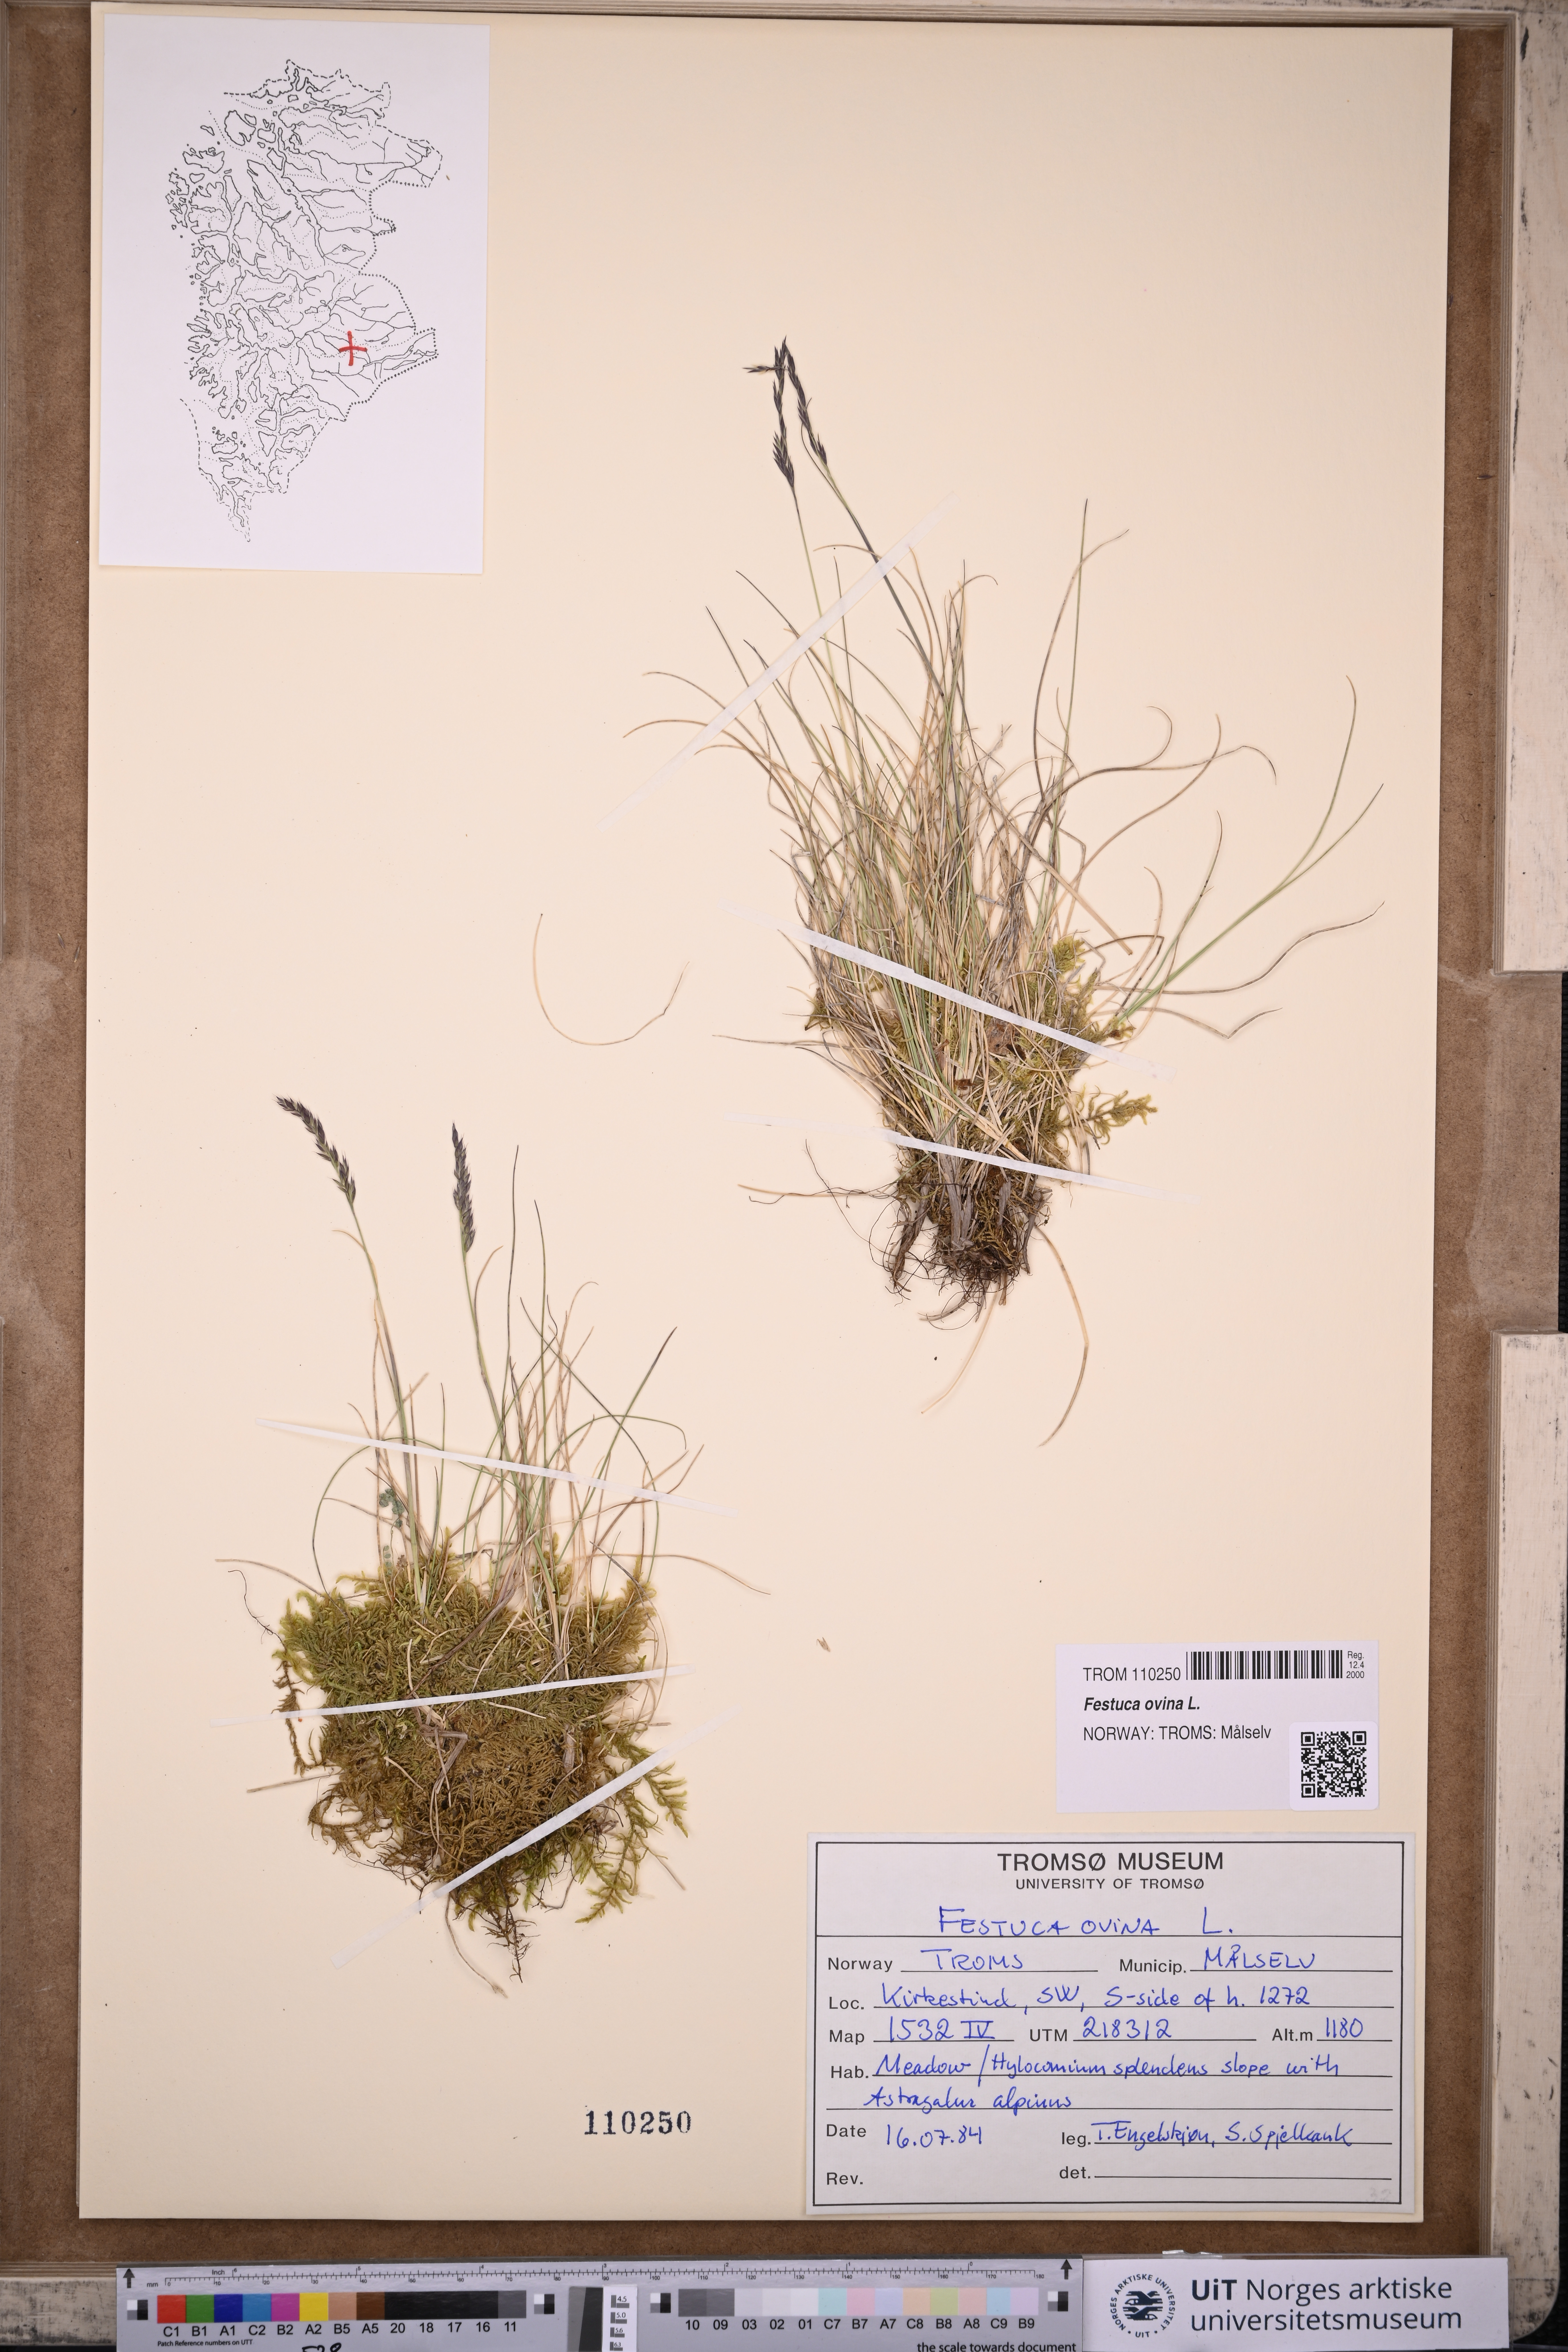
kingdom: Plantae
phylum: Tracheophyta
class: Liliopsida
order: Poales
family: Poaceae
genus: Festuca
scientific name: Festuca ovina
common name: Sheep fescue
